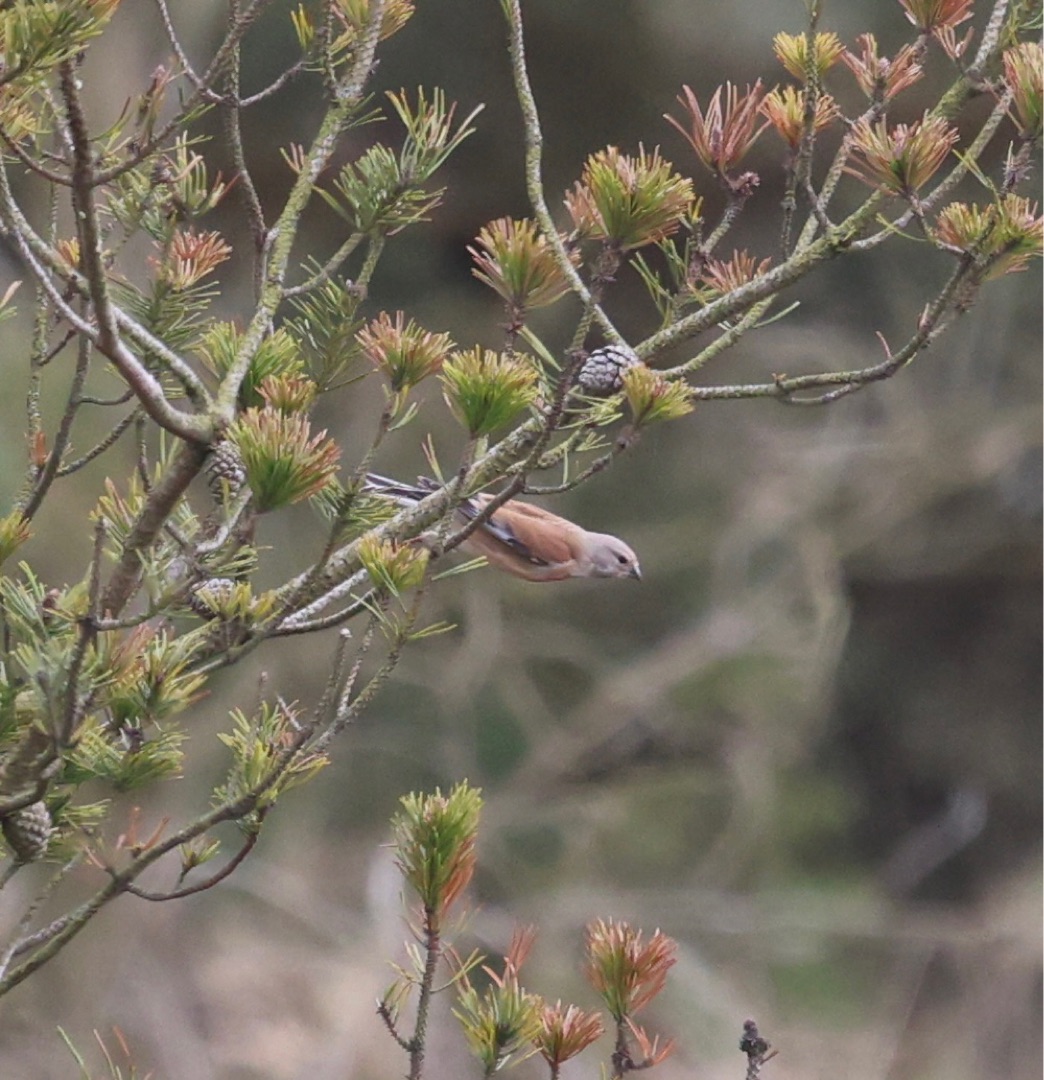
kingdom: Animalia
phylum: Chordata
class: Aves
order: Passeriformes
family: Fringillidae
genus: Linaria
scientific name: Linaria cannabina
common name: Tornirisk
